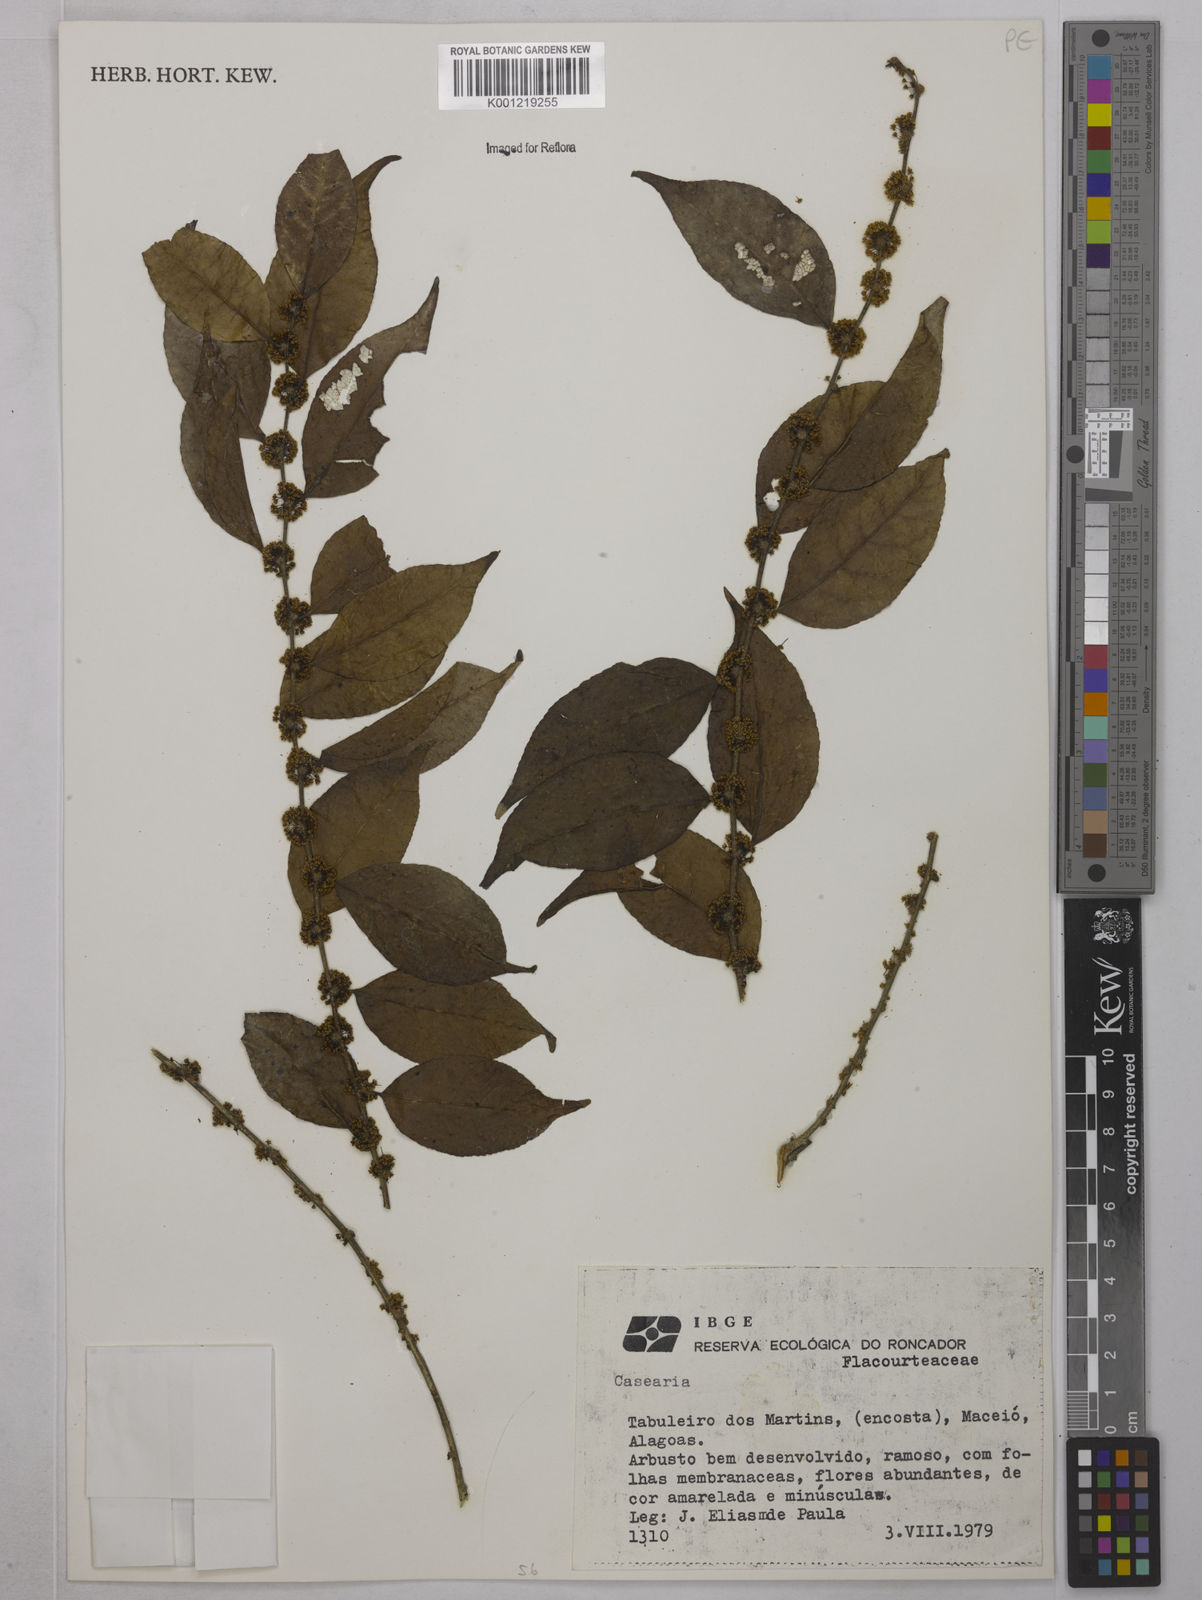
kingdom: Plantae
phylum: Tracheophyta
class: Magnoliopsida
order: Malpighiales
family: Salicaceae
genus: Casearia
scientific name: Casearia
